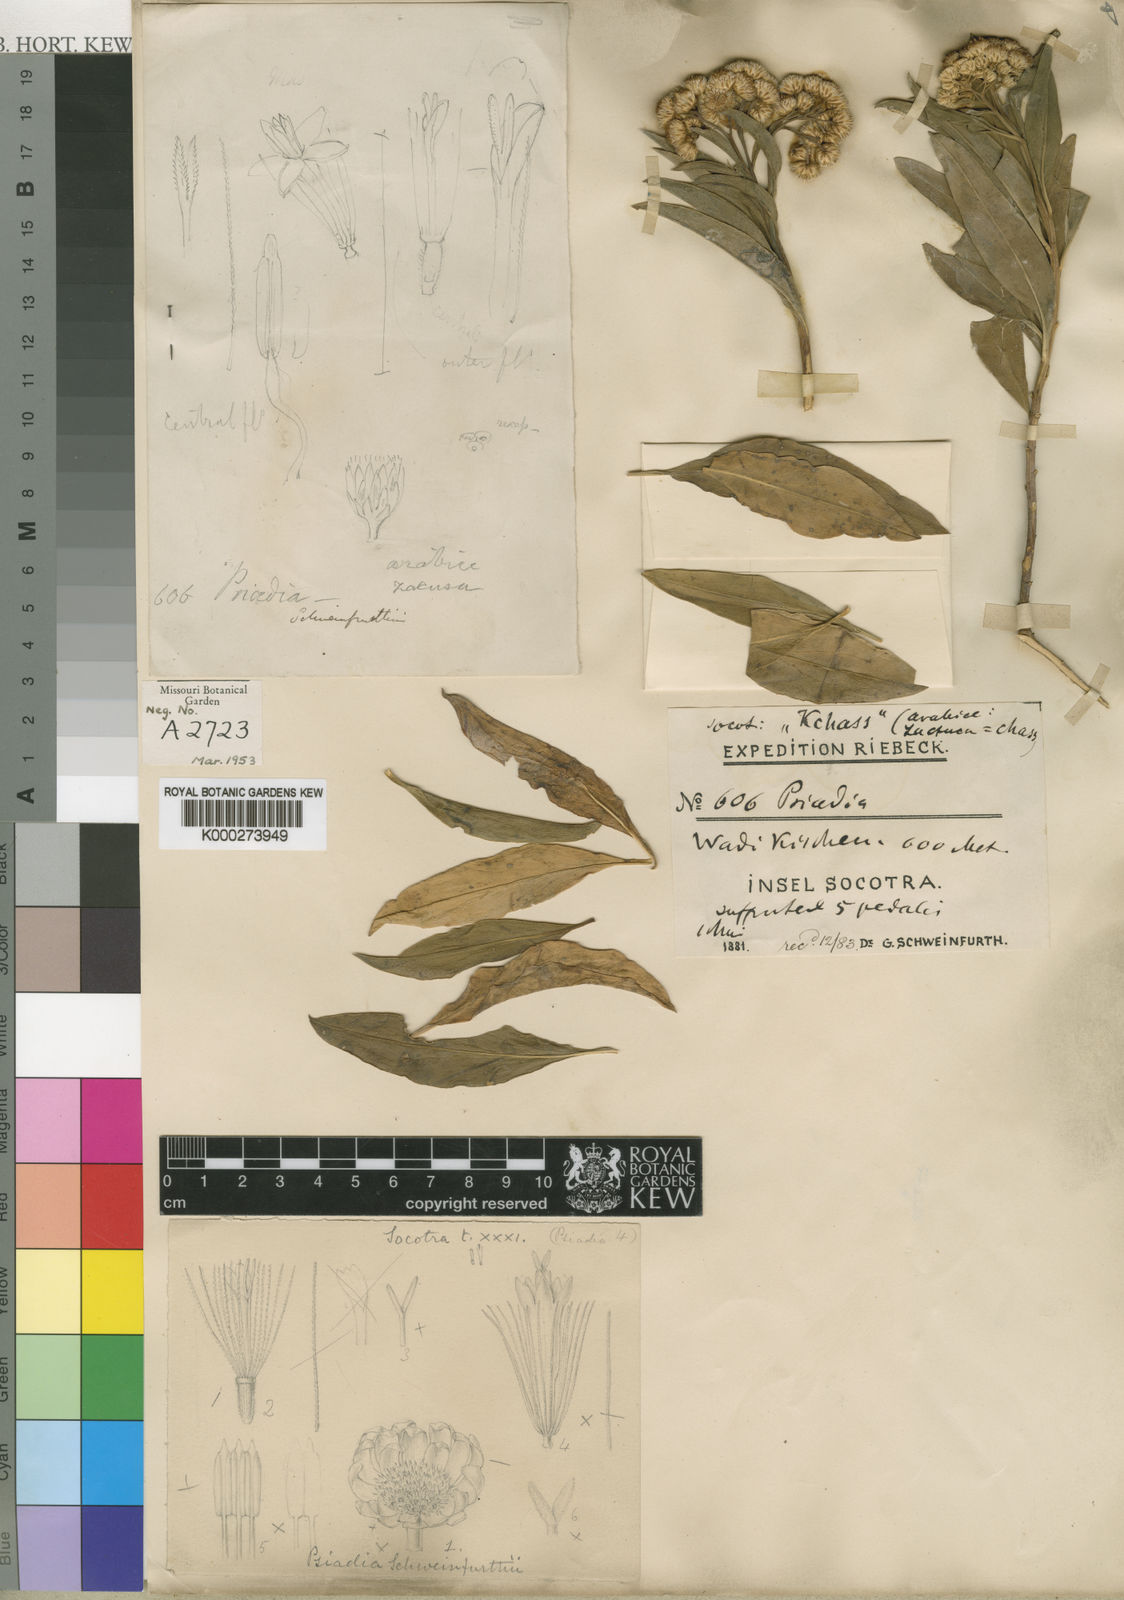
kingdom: Plantae
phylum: Tracheophyta
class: Magnoliopsida
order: Asterales
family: Asteraceae
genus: Psiadia
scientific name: Psiadia punctulata
